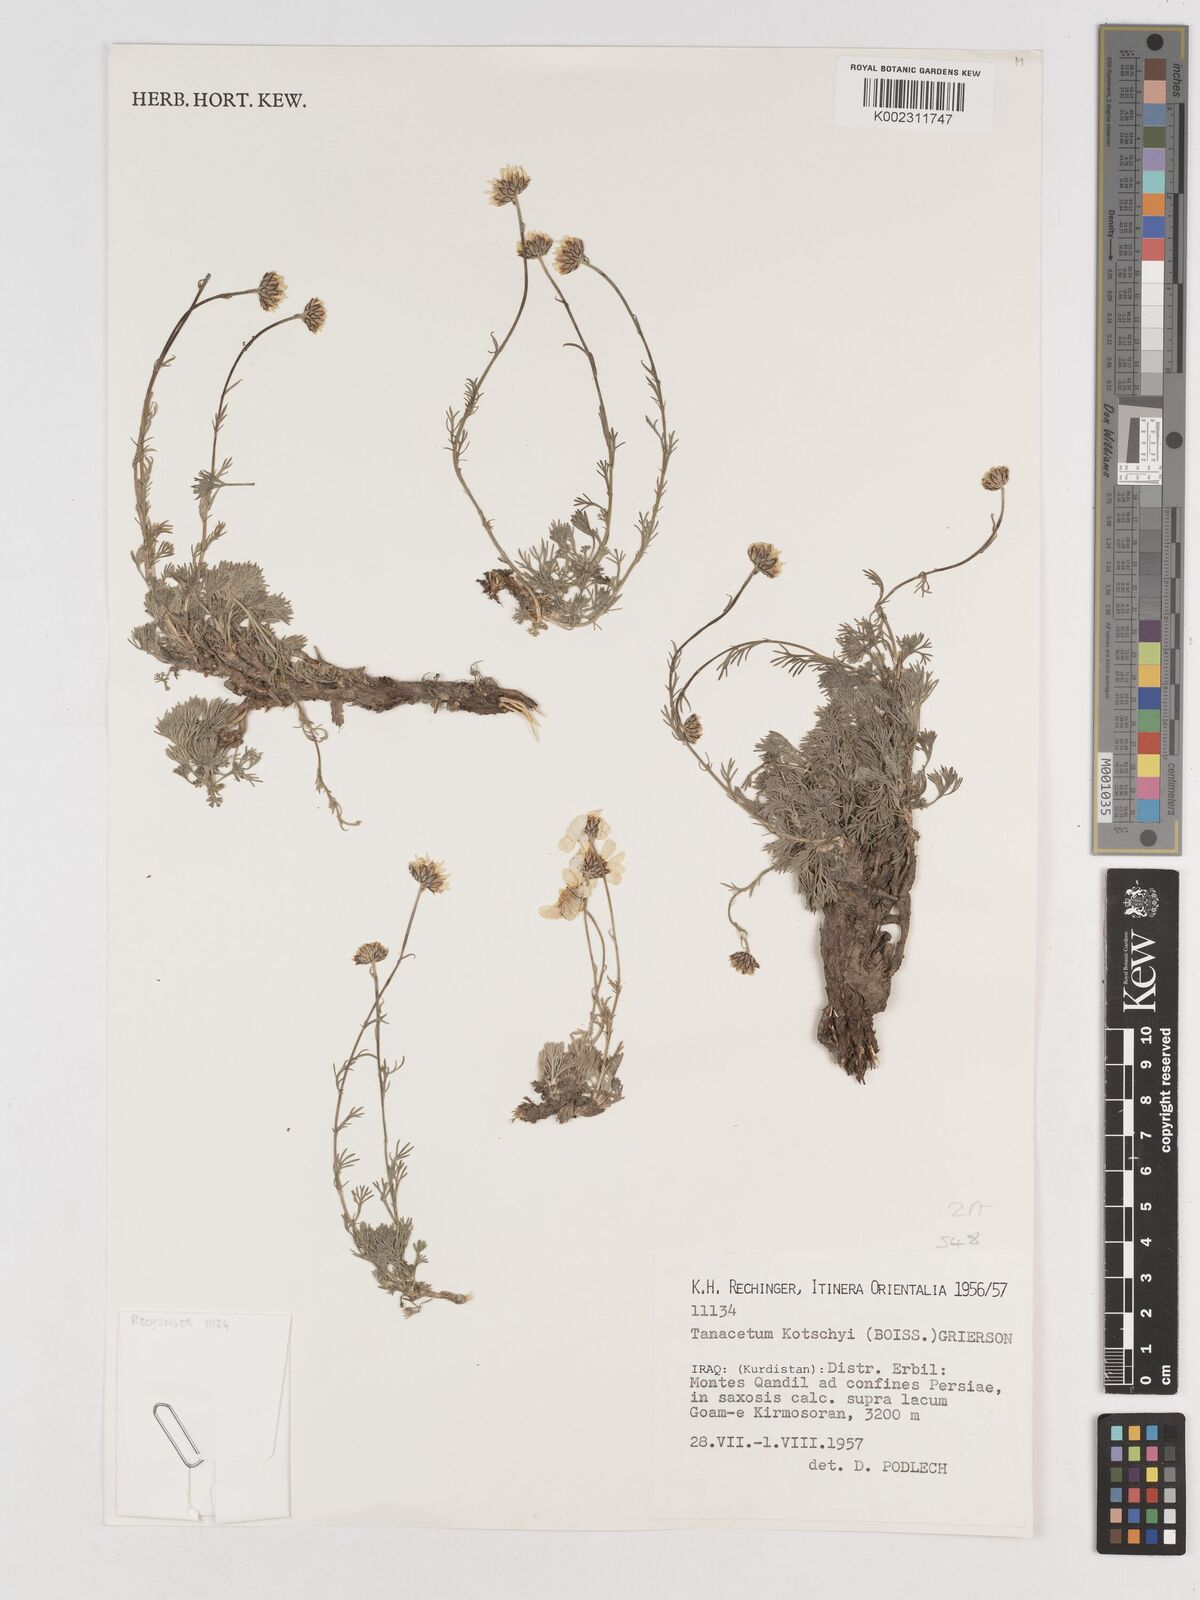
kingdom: Plantae
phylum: Tracheophyta
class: Magnoliopsida
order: Asterales
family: Asteraceae
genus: Tanacetum
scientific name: Tanacetum polycephalum
